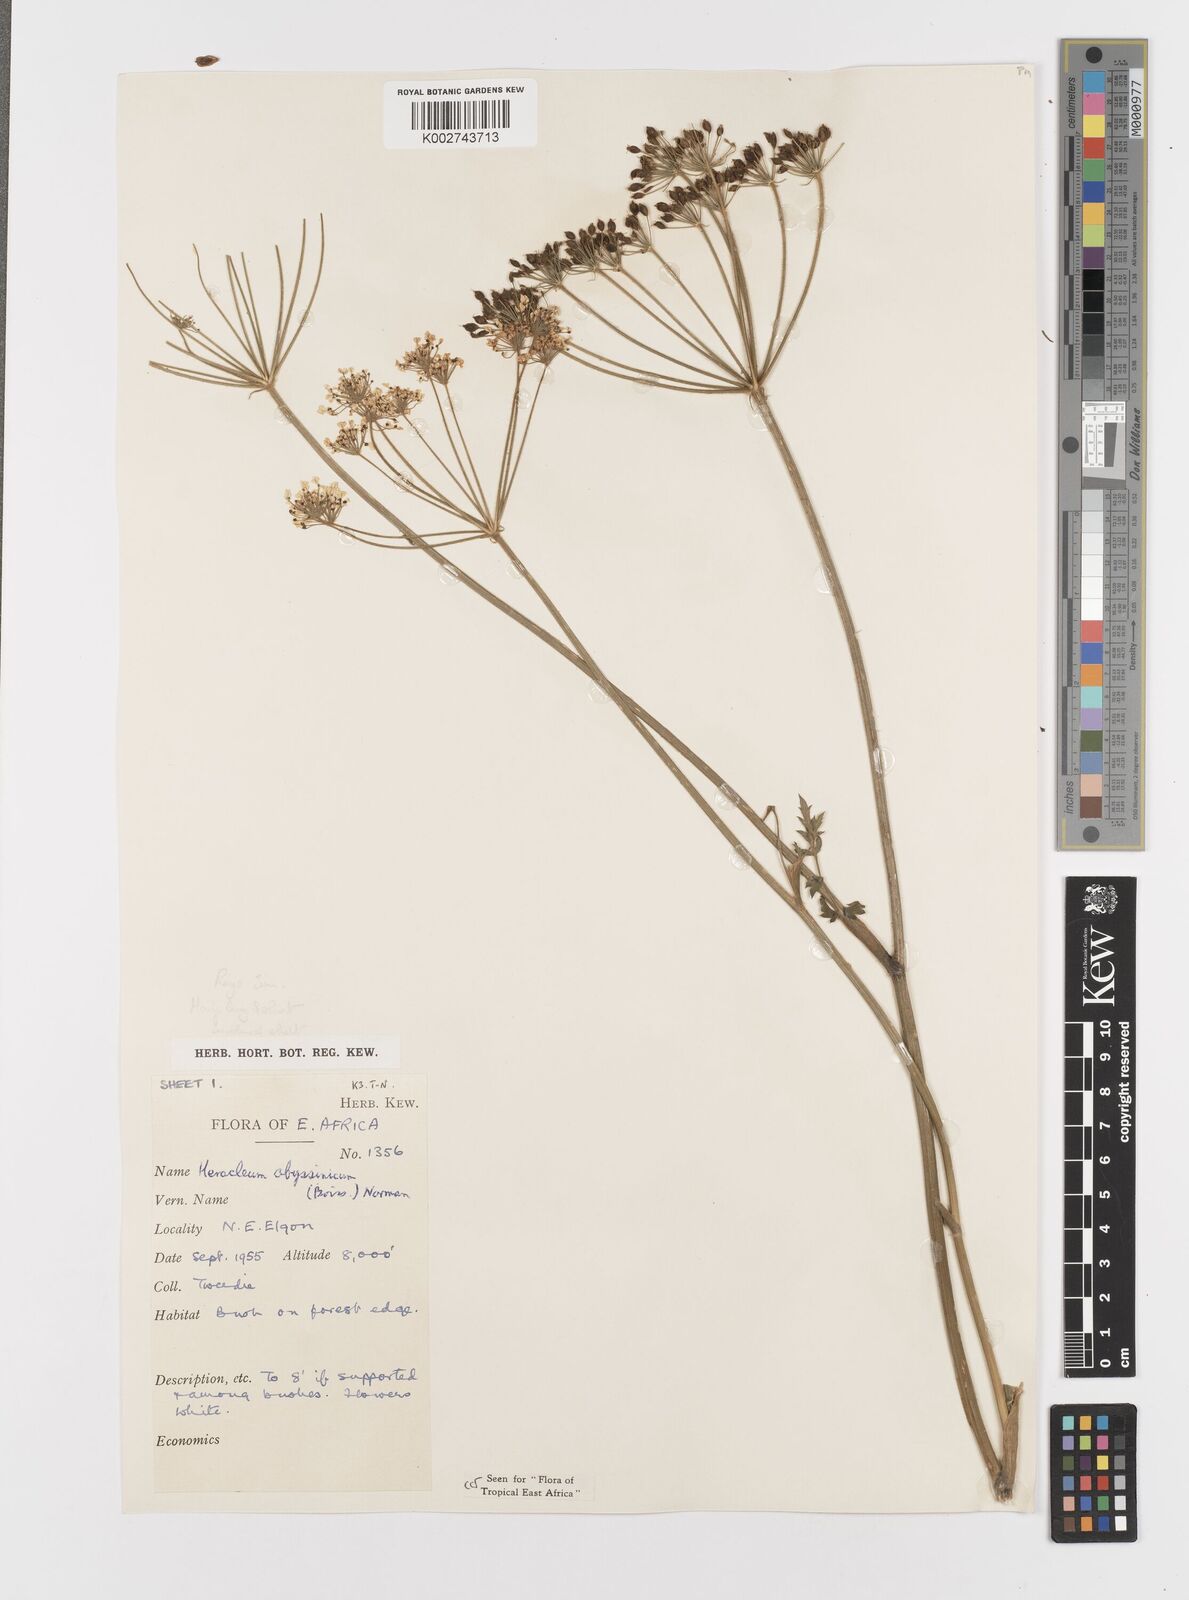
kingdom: Plantae
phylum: Tracheophyta
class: Magnoliopsida
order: Apiales
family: Apiaceae
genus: Heracleum
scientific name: Heracleum abyssinicum
